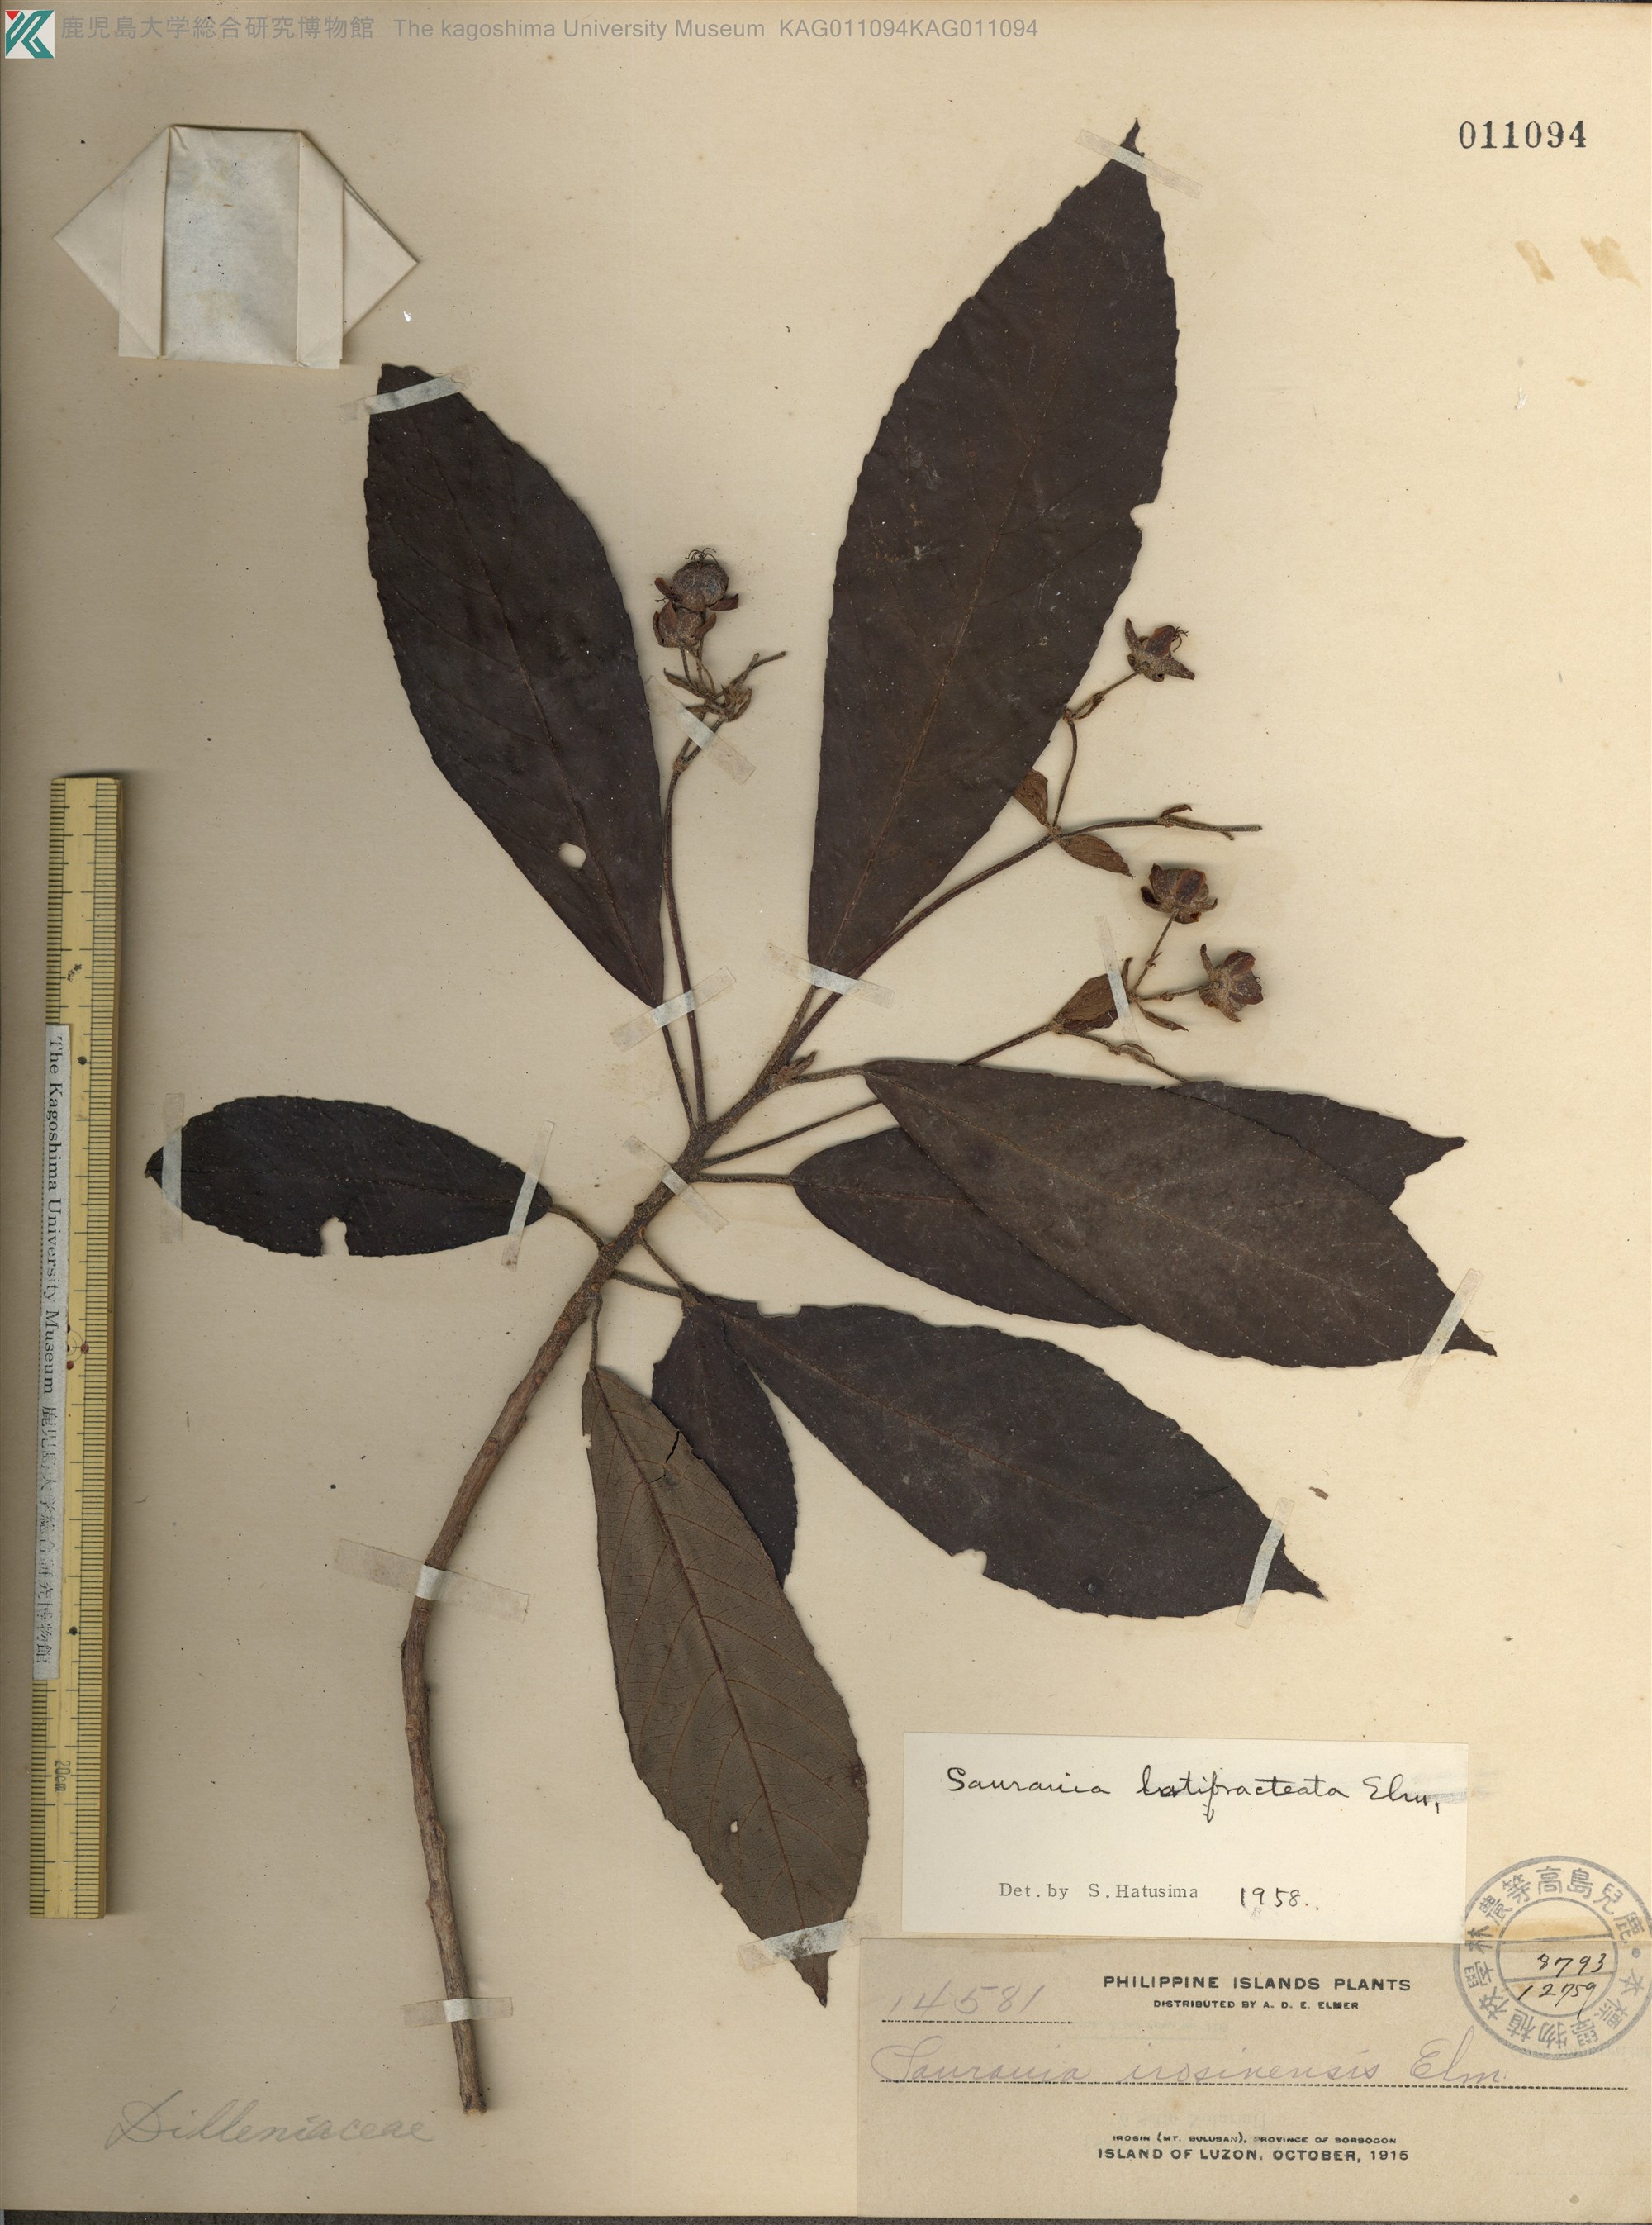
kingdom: Plantae
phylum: Tracheophyta
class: Magnoliopsida
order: Ericales
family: Actinidiaceae
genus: Saurauia
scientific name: Saurauia latibractea
